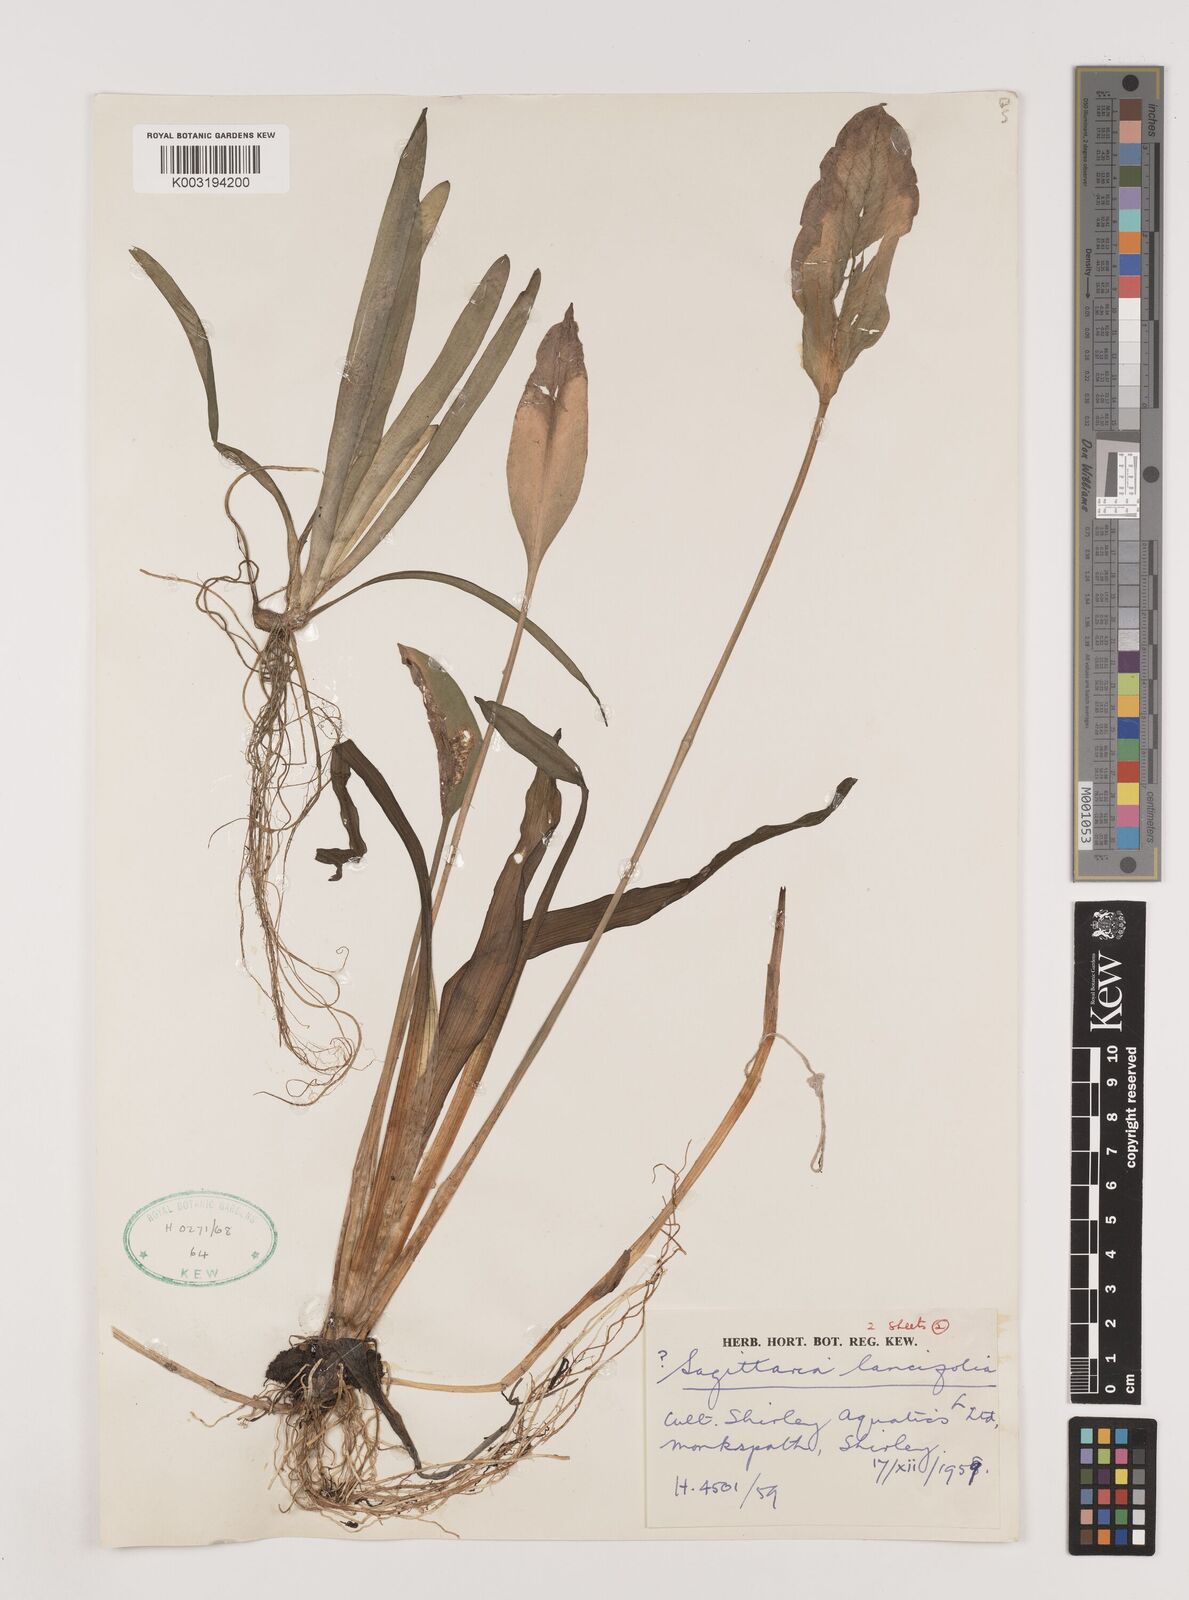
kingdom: Plantae
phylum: Tracheophyta
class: Liliopsida
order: Alismatales
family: Alismataceae
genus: Sagittaria
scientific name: Sagittaria lancifolia
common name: Lance-leaf arrowhead
